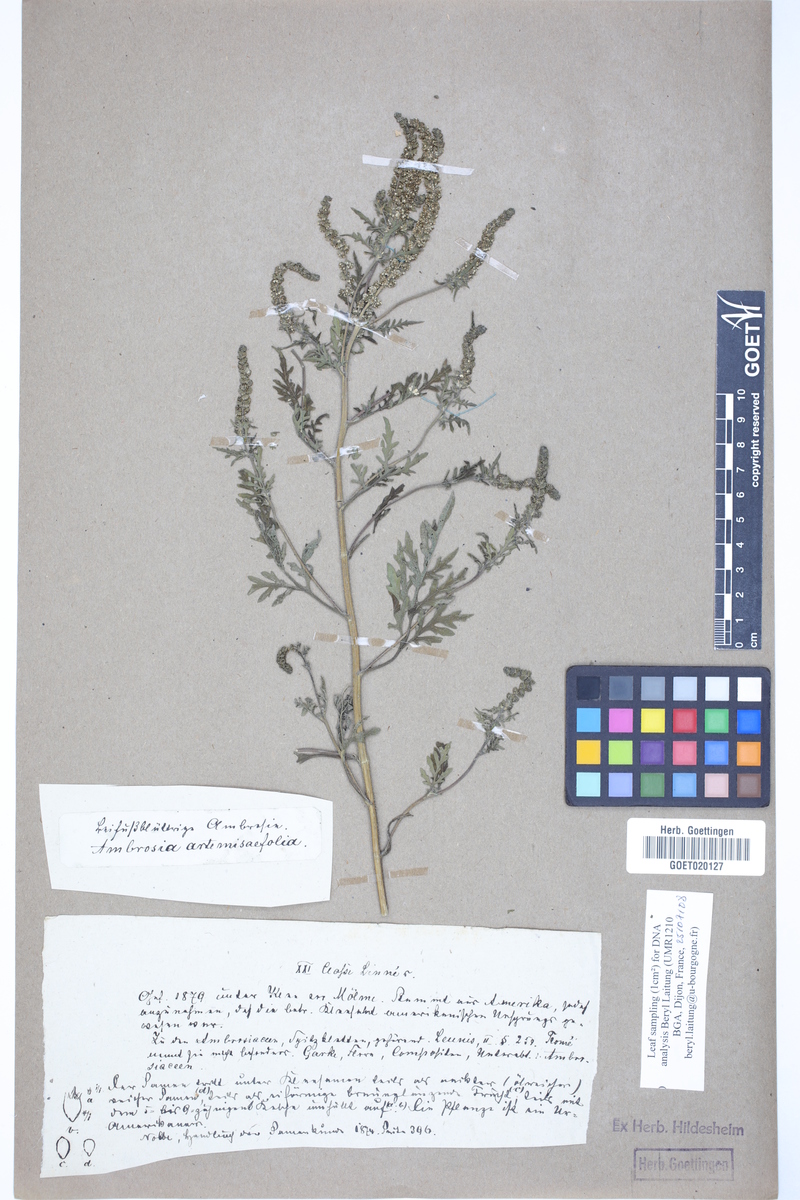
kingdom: Plantae
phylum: Tracheophyta
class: Magnoliopsida
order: Asterales
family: Asteraceae
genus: Ambrosia
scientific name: Ambrosia artemisiifolia
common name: Annual ragweed
